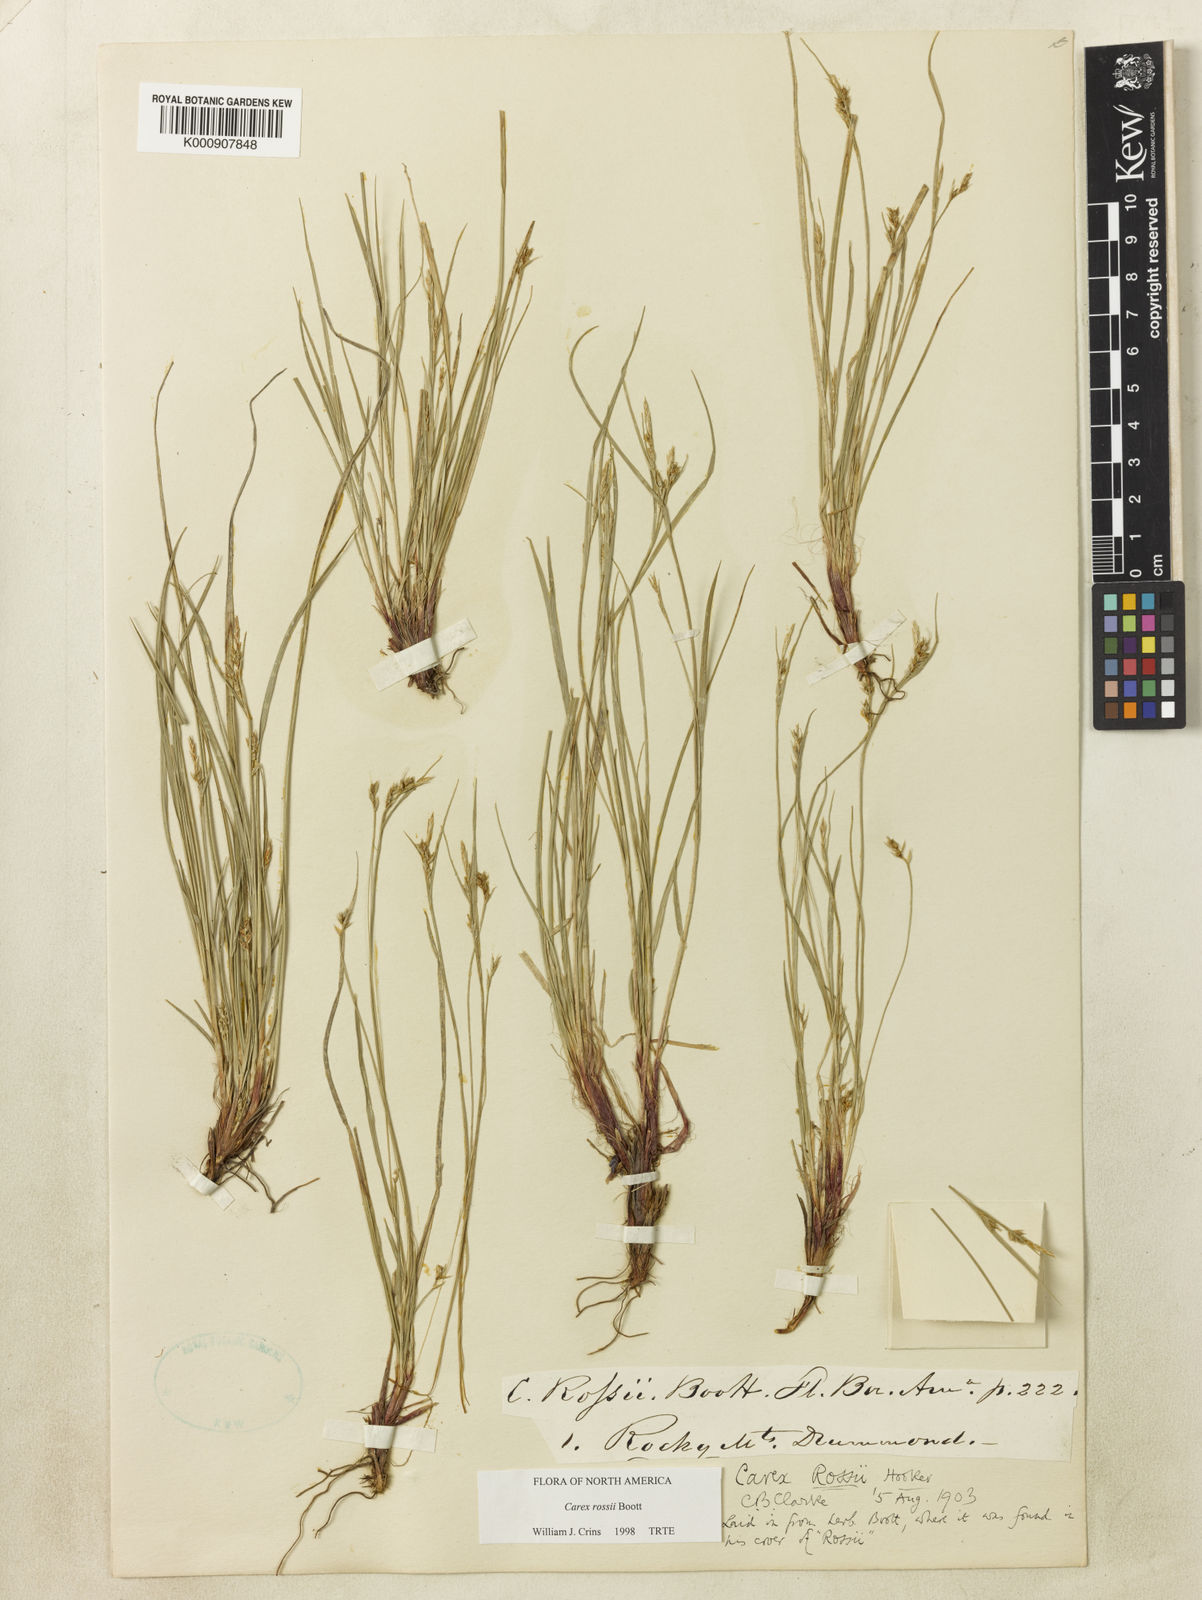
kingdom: Plantae
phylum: Tracheophyta
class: Liliopsida
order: Poales
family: Cyperaceae
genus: Carex
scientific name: Carex rossii
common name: Ross' sedge
